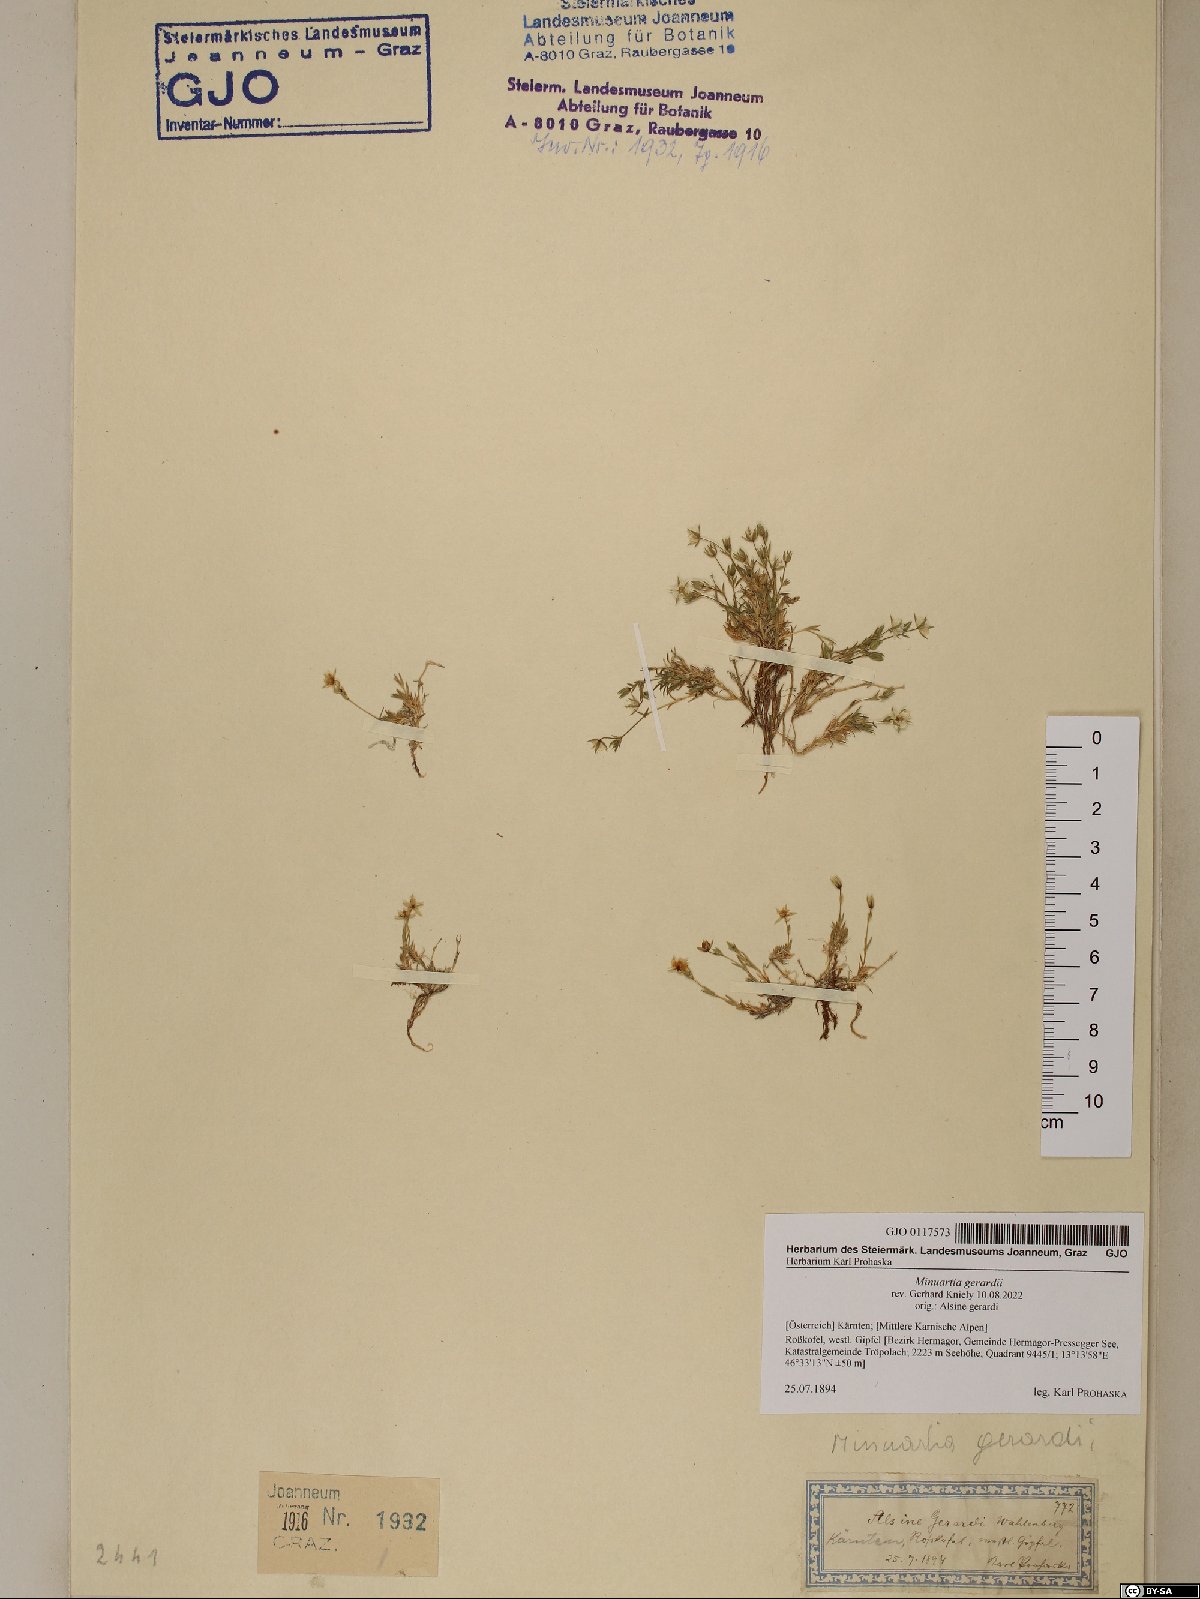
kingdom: Plantae
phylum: Tracheophyta
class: Magnoliopsida
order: Caryophyllales
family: Caryophyllaceae
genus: Sabulina
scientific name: Sabulina verna
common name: Spring sandwort
